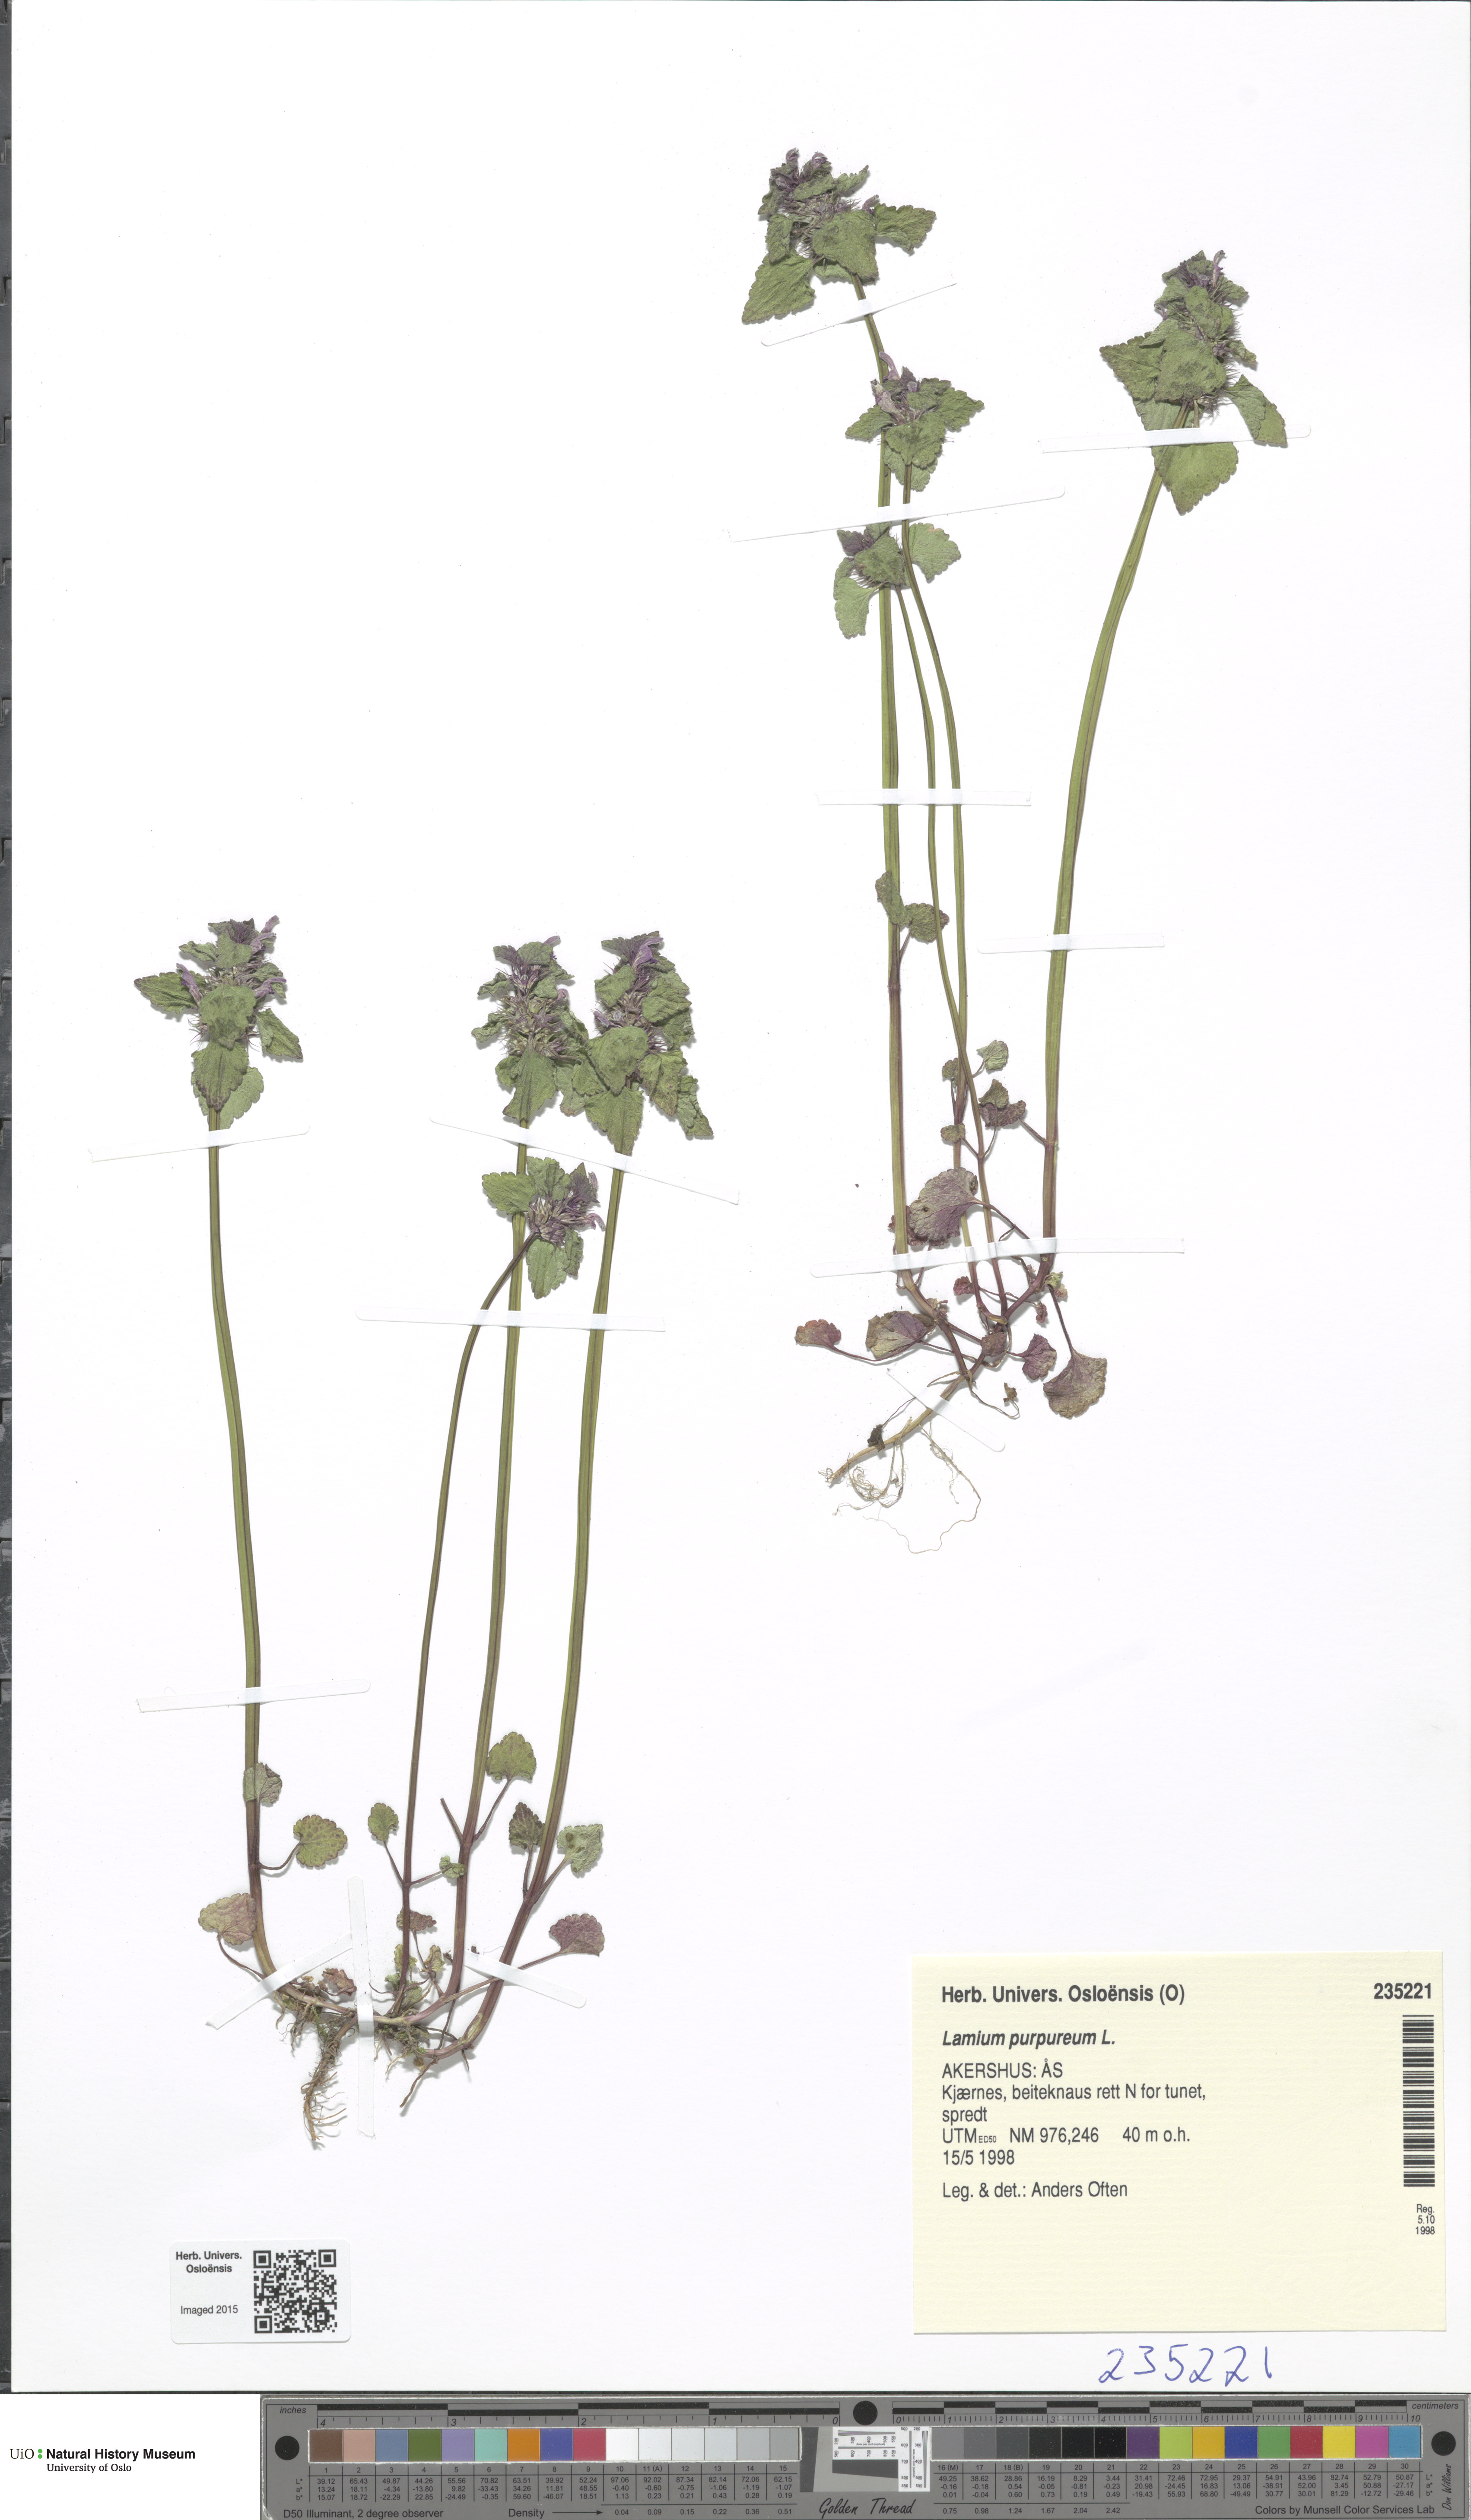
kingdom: Plantae
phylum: Tracheophyta
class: Magnoliopsida
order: Lamiales
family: Lamiaceae
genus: Lamium
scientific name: Lamium purpureum
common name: Red dead-nettle
